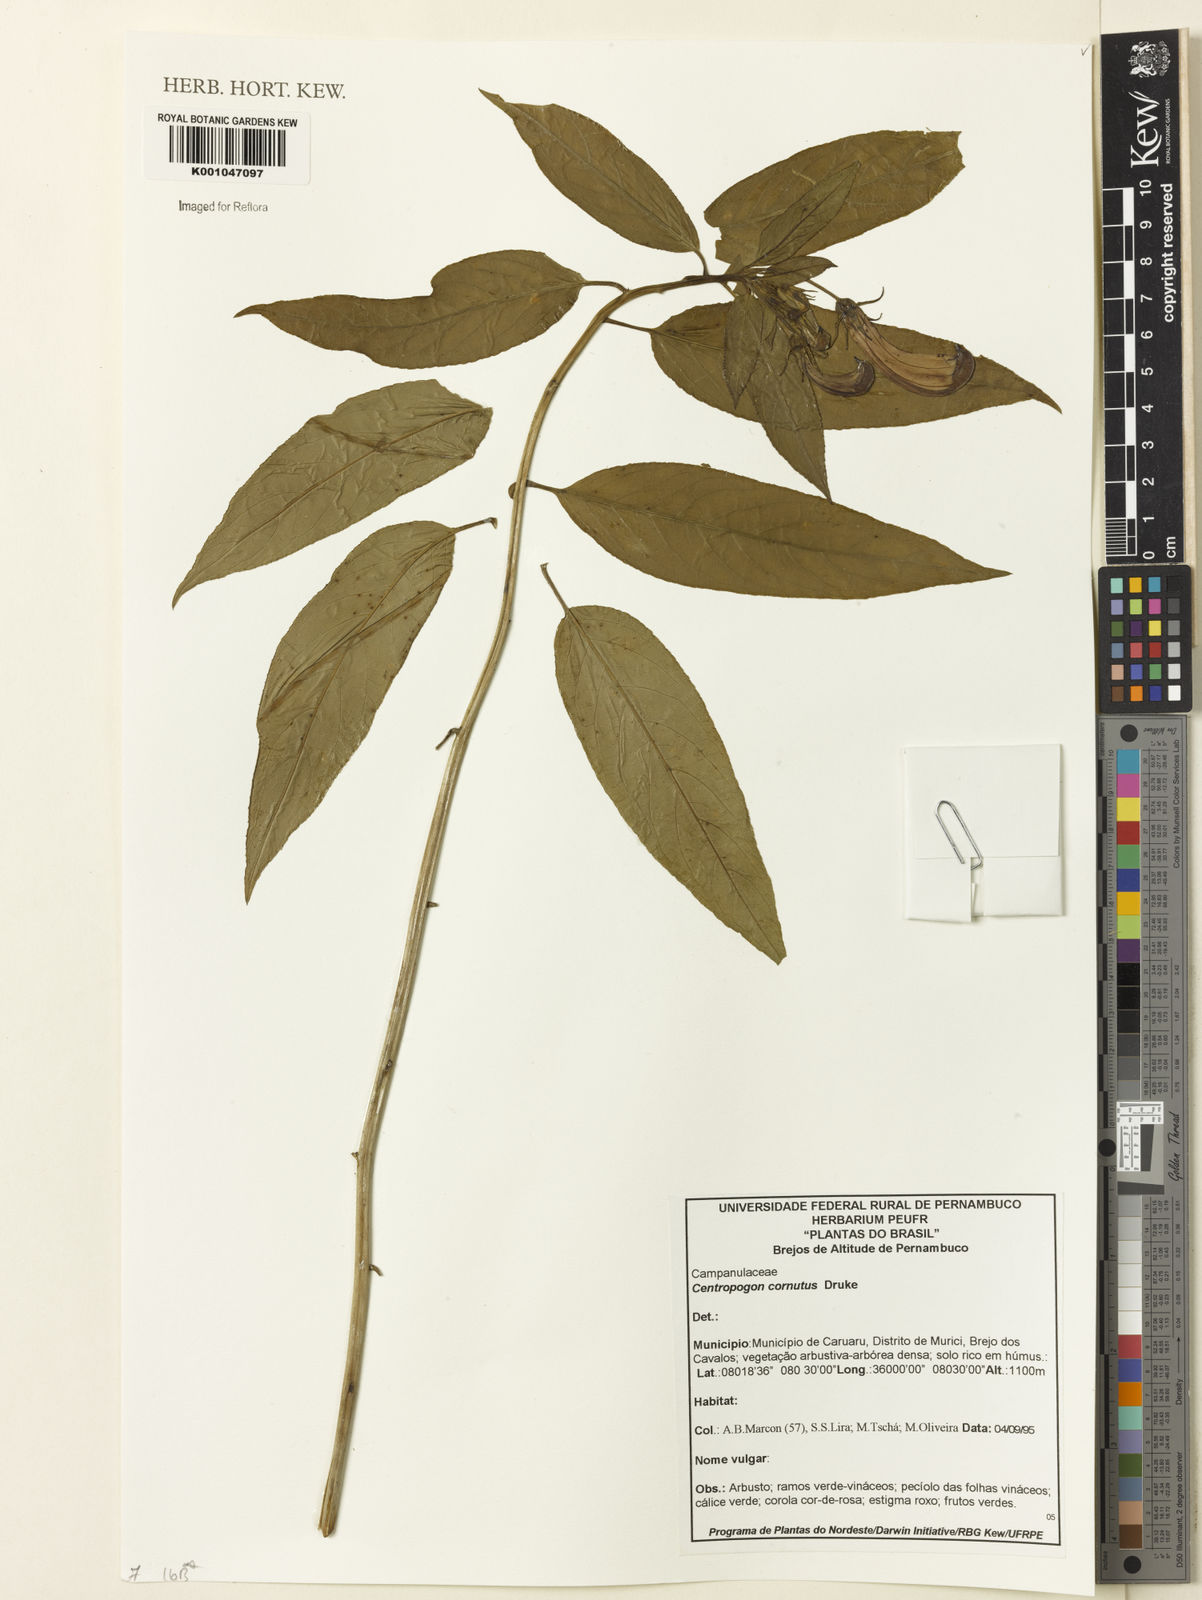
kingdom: Plantae
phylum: Tracheophyta
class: Magnoliopsida
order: Asterales
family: Campanulaceae
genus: Centropogon
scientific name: Centropogon cornutus
